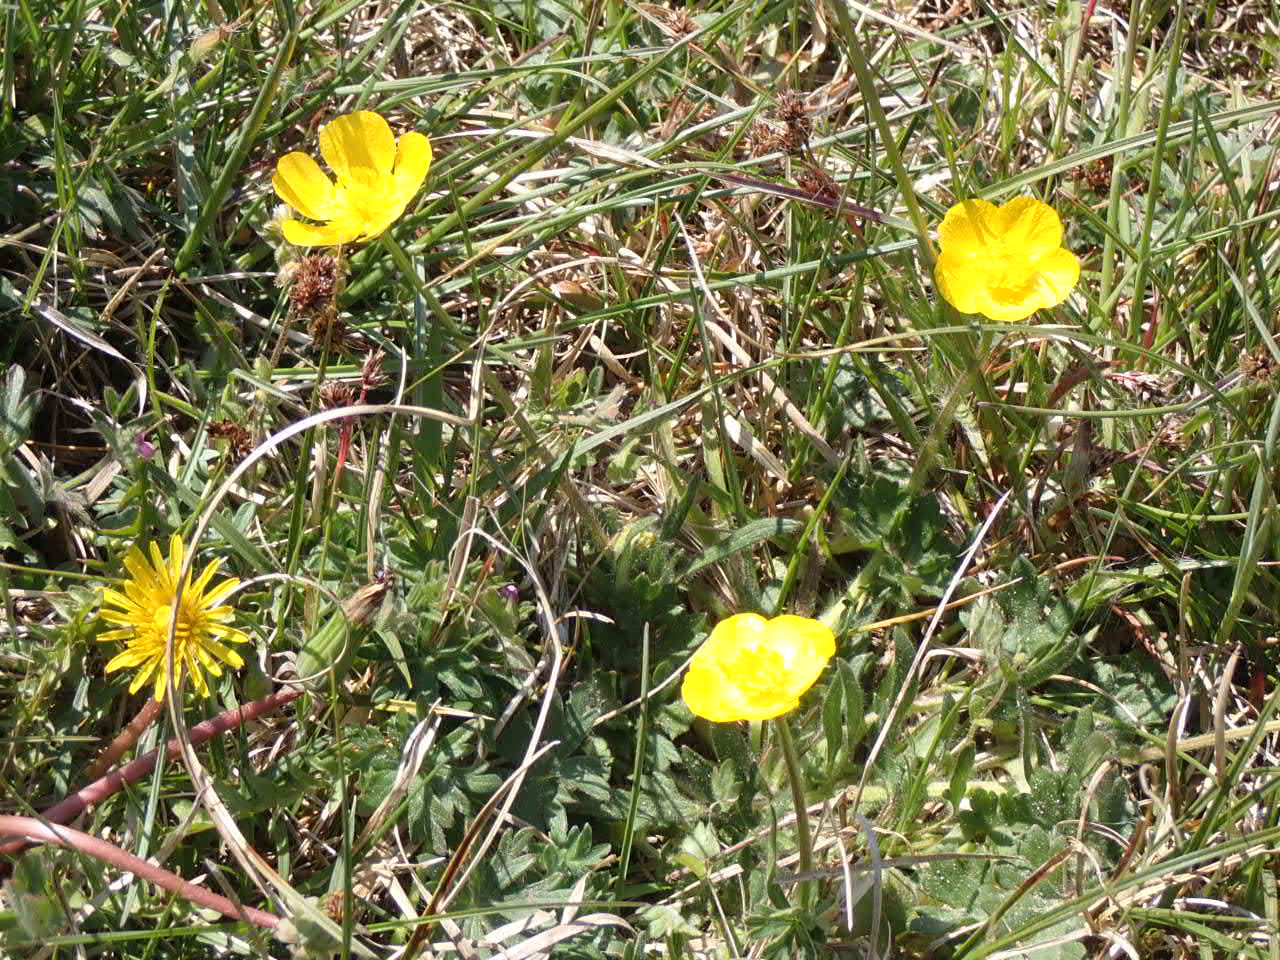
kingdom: Plantae
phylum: Tracheophyta
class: Magnoliopsida
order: Ranunculales
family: Ranunculaceae
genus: Ranunculus
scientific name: Ranunculus bulbosus
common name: Knold-ranunkel
